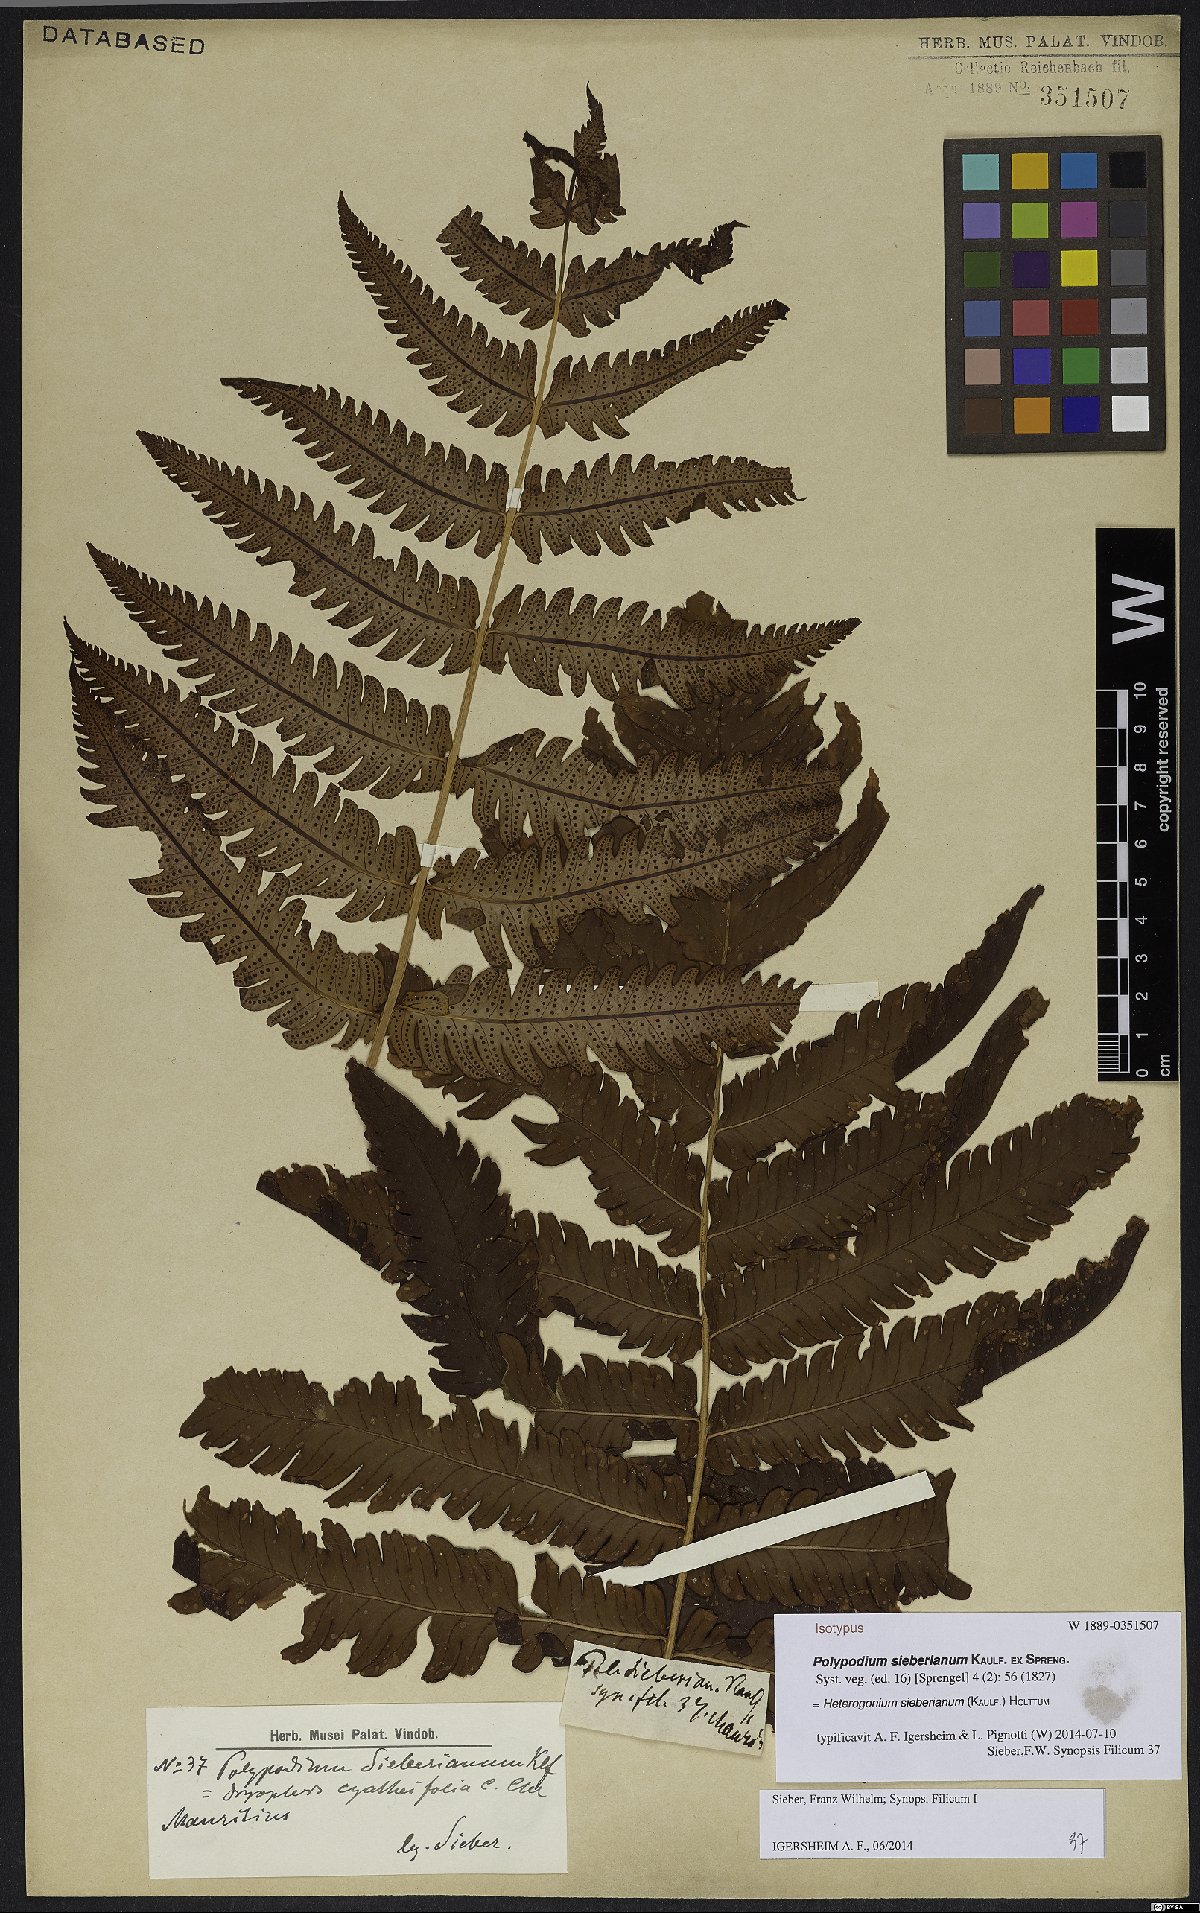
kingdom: Plantae
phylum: Tracheophyta
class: Polypodiopsida
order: Polypodiales
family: Dryopteridaceae
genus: Ctenitis
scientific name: Ctenitis sieberiana
